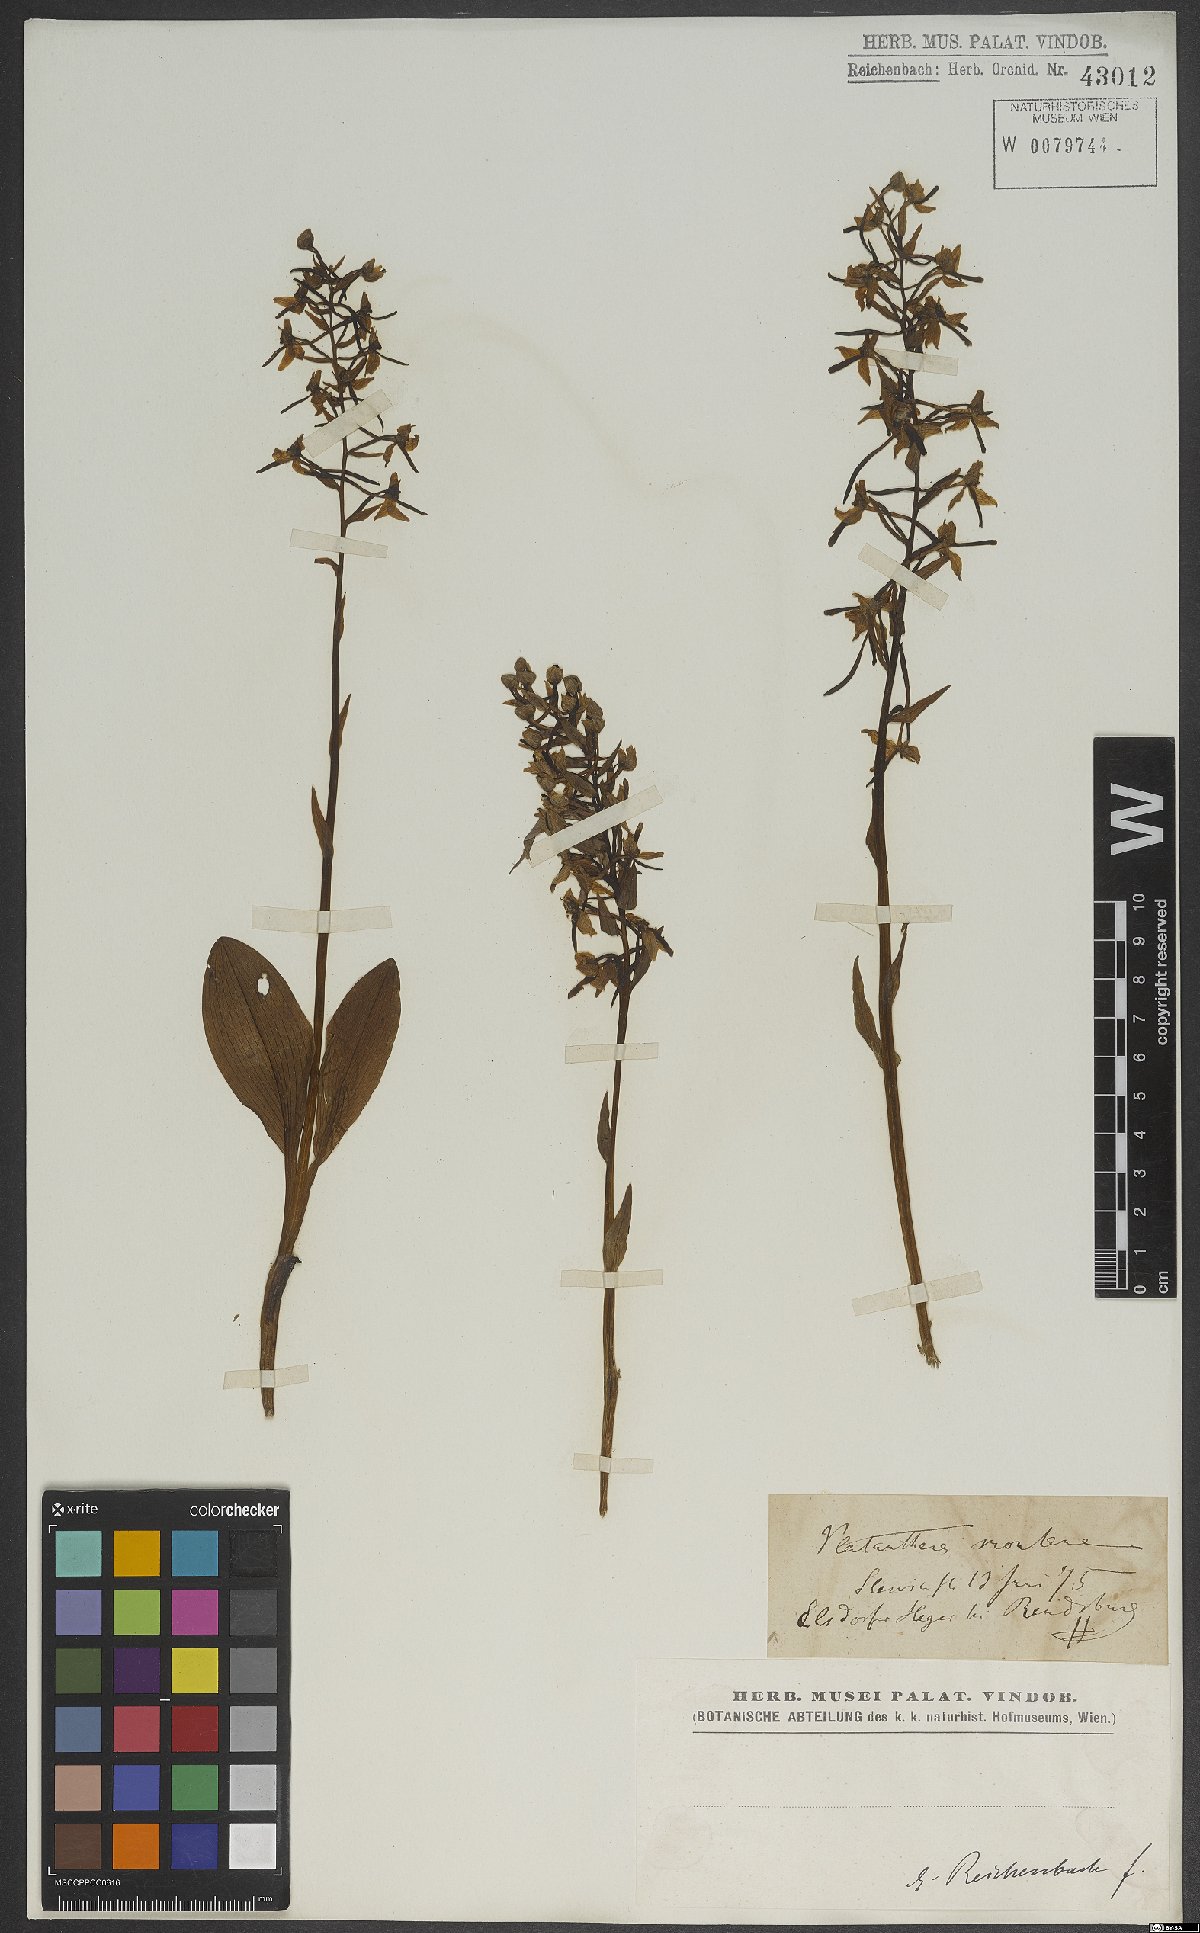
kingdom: Plantae
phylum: Tracheophyta
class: Liliopsida
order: Asparagales
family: Orchidaceae
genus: Platanthera
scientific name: Platanthera chlorantha
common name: Greater butterfly-orchid
